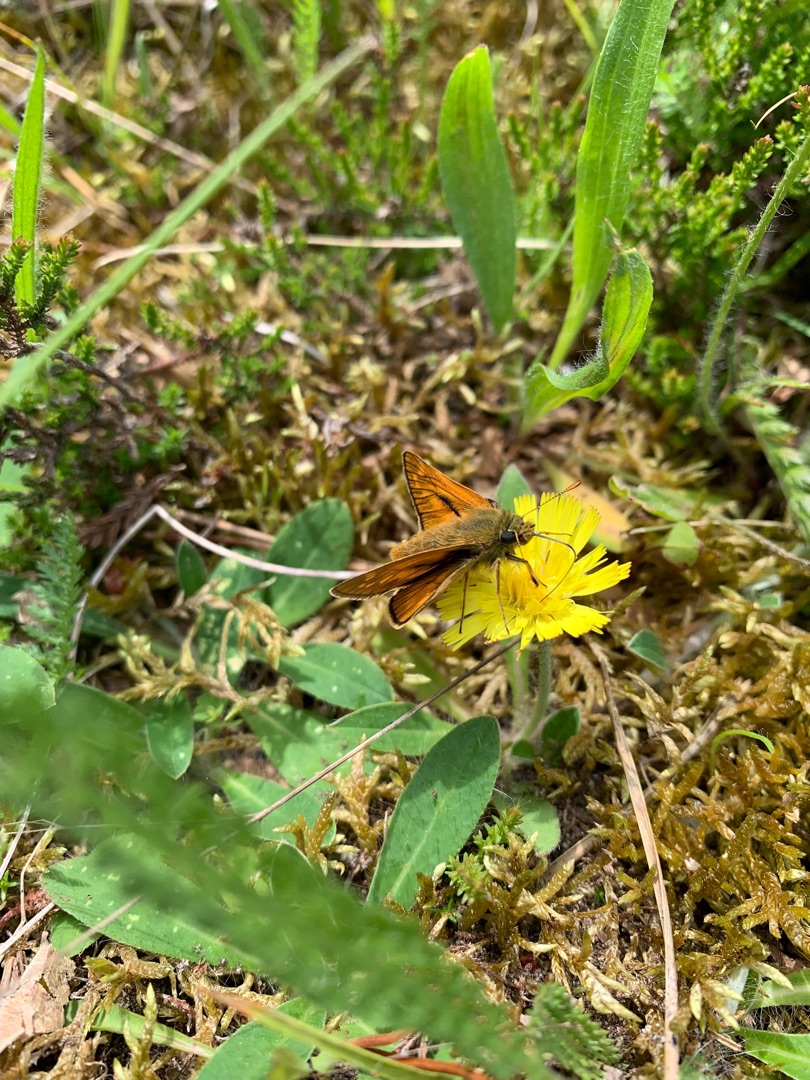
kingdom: Animalia
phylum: Arthropoda
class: Insecta
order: Lepidoptera
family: Hesperiidae
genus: Ochlodes
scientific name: Ochlodes venata
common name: Stor bredpande
